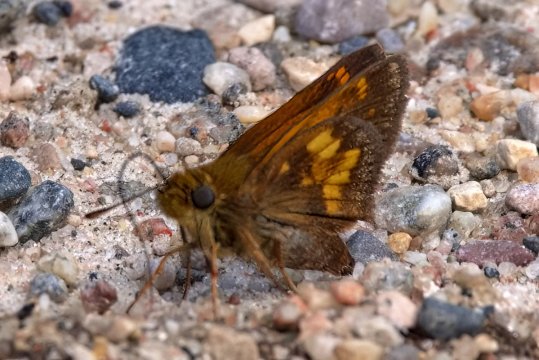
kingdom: Animalia
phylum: Arthropoda
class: Insecta
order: Lepidoptera
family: Hesperiidae
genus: Lon
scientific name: Lon hobomok
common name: Hobomok Skipper
